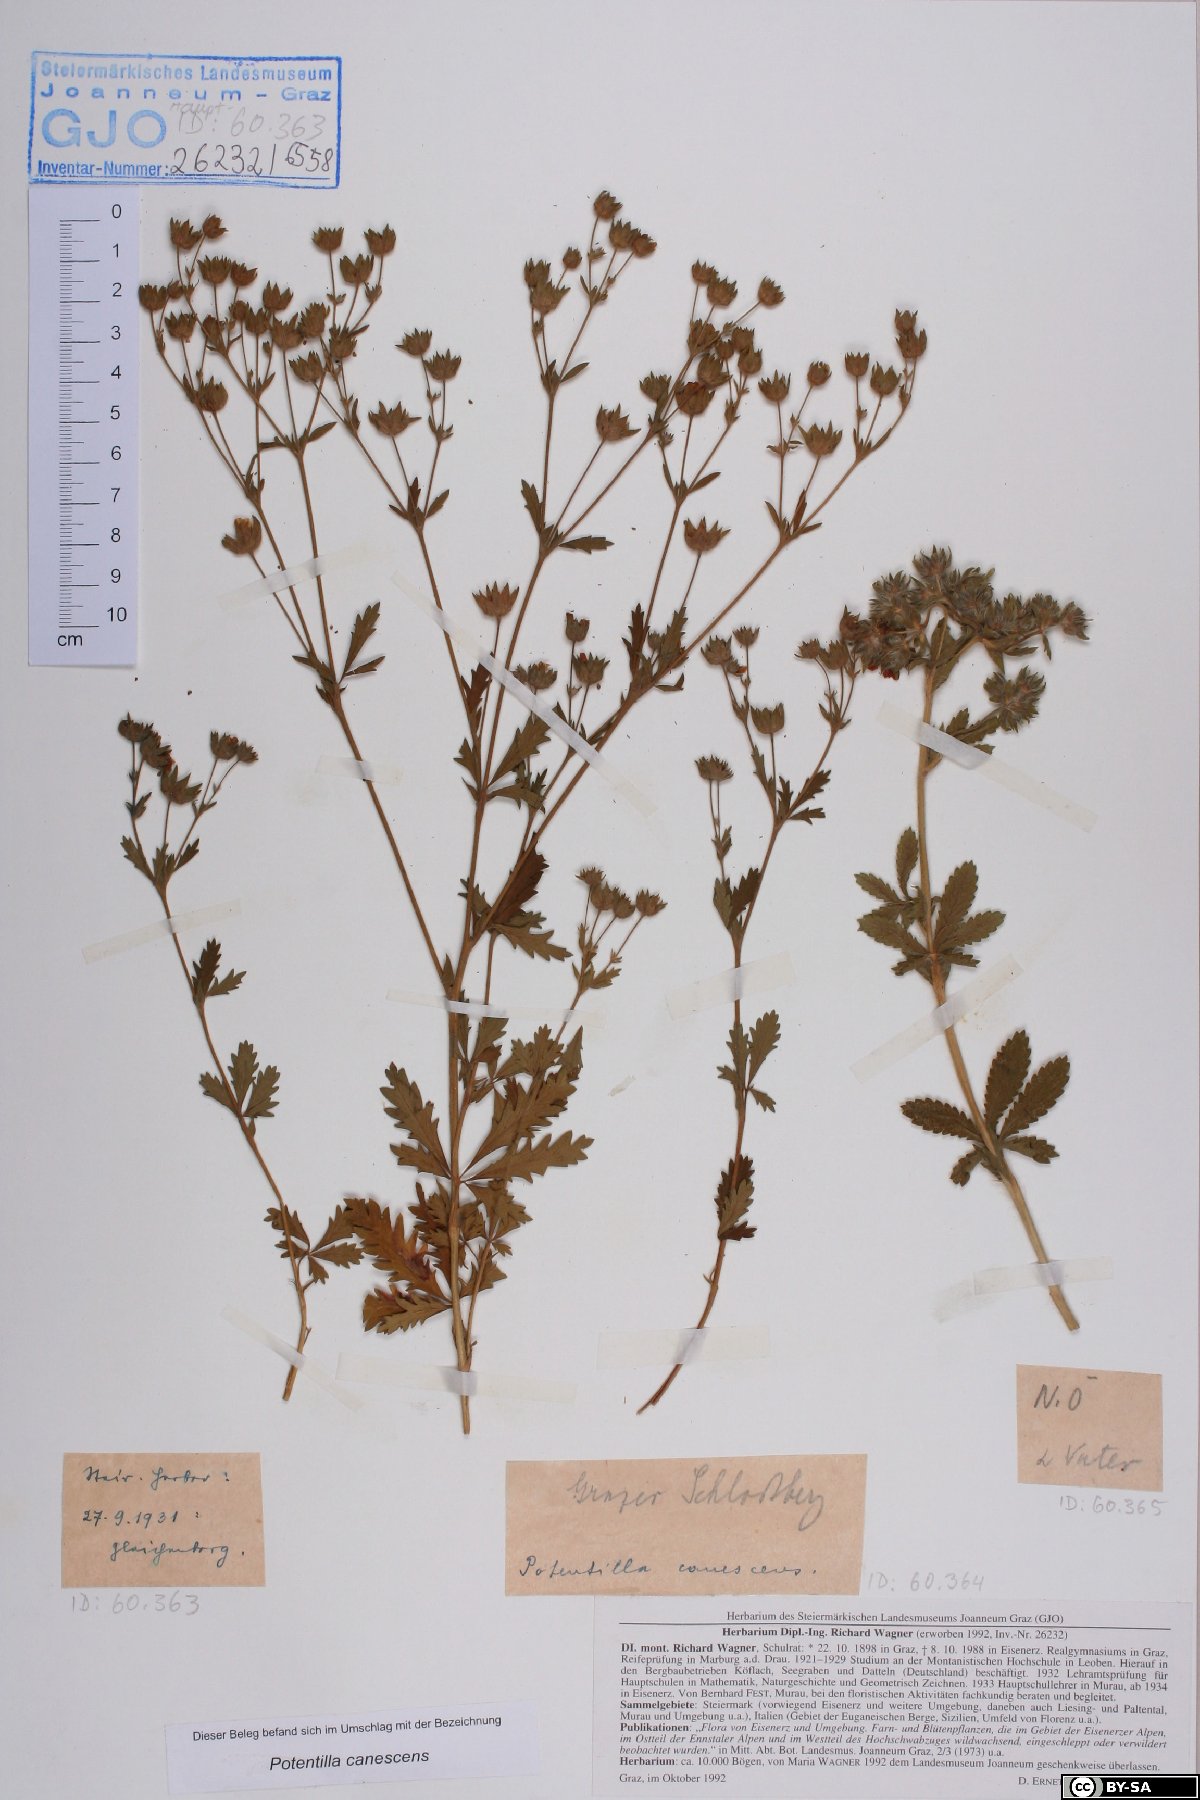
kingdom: Plantae
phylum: Tracheophyta
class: Magnoliopsida
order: Rosales
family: Rosaceae
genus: Potentilla
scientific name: Potentilla inclinata
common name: Grey cinquefoil
